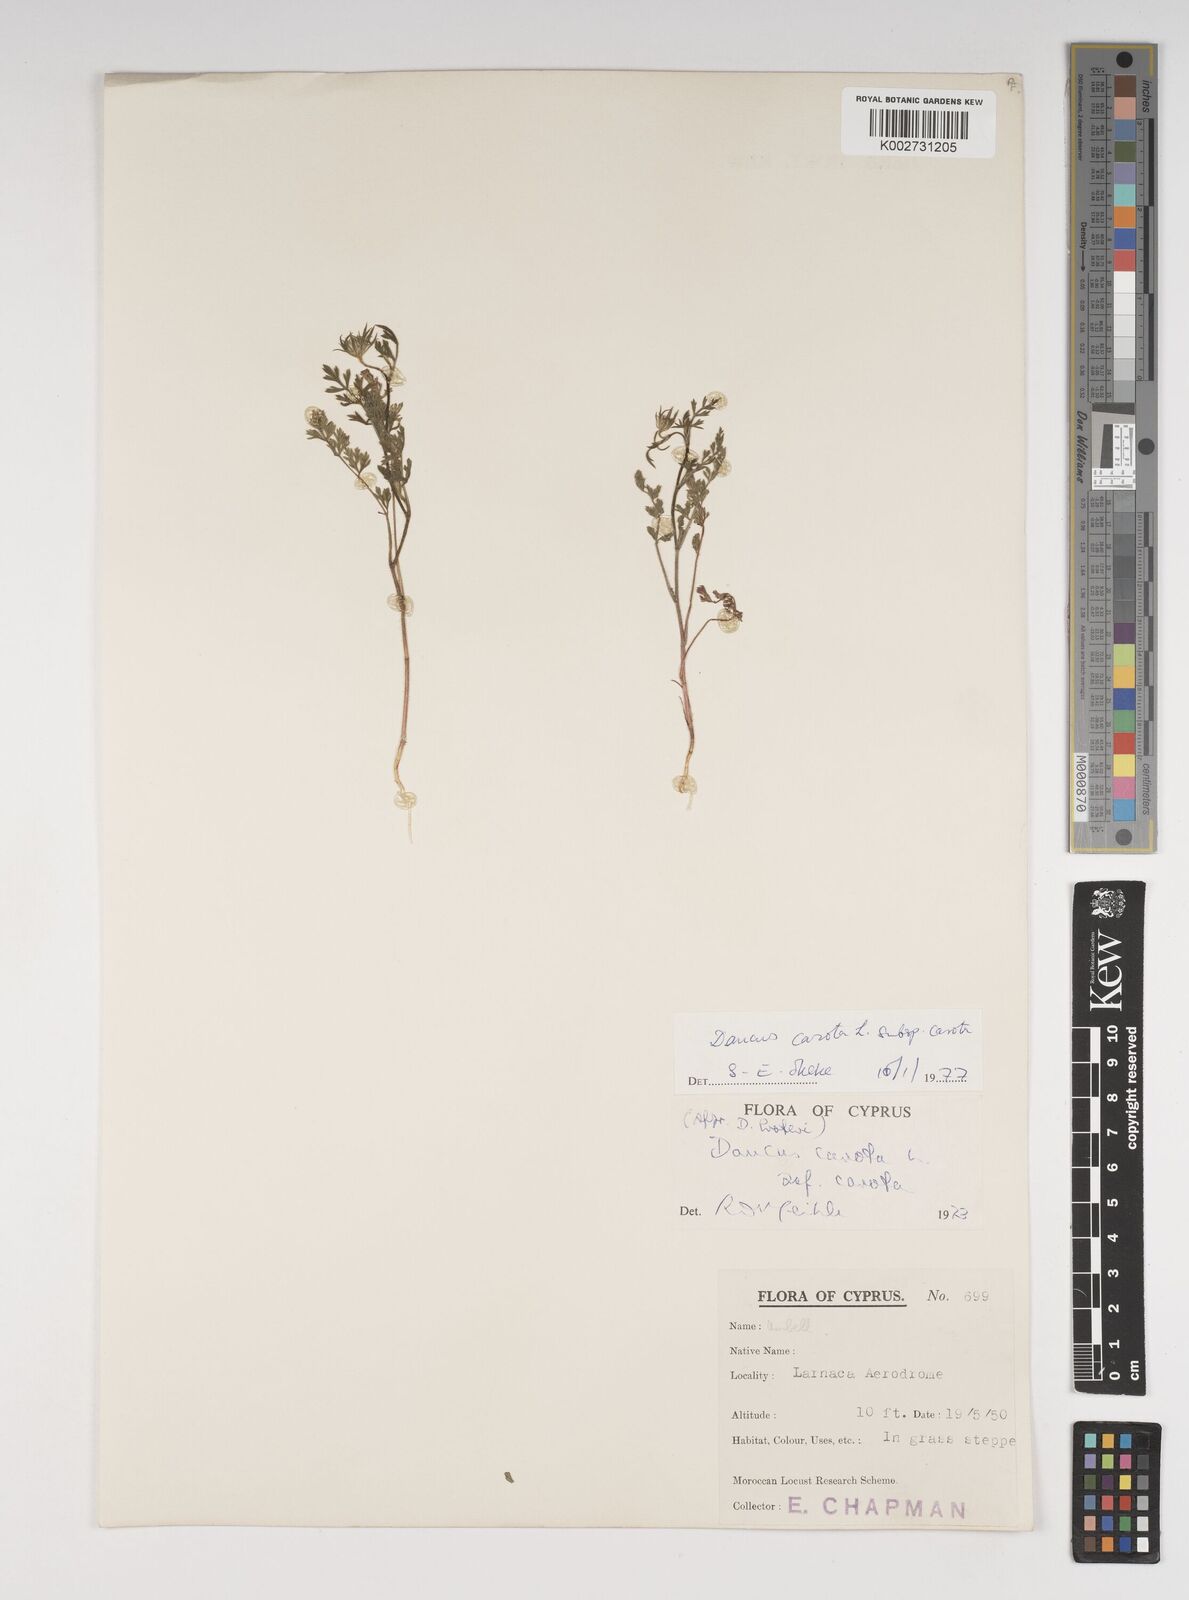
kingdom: Plantae
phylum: Tracheophyta
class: Magnoliopsida
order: Apiales
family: Apiaceae
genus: Daucus
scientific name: Daucus carota
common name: Wild carrot
